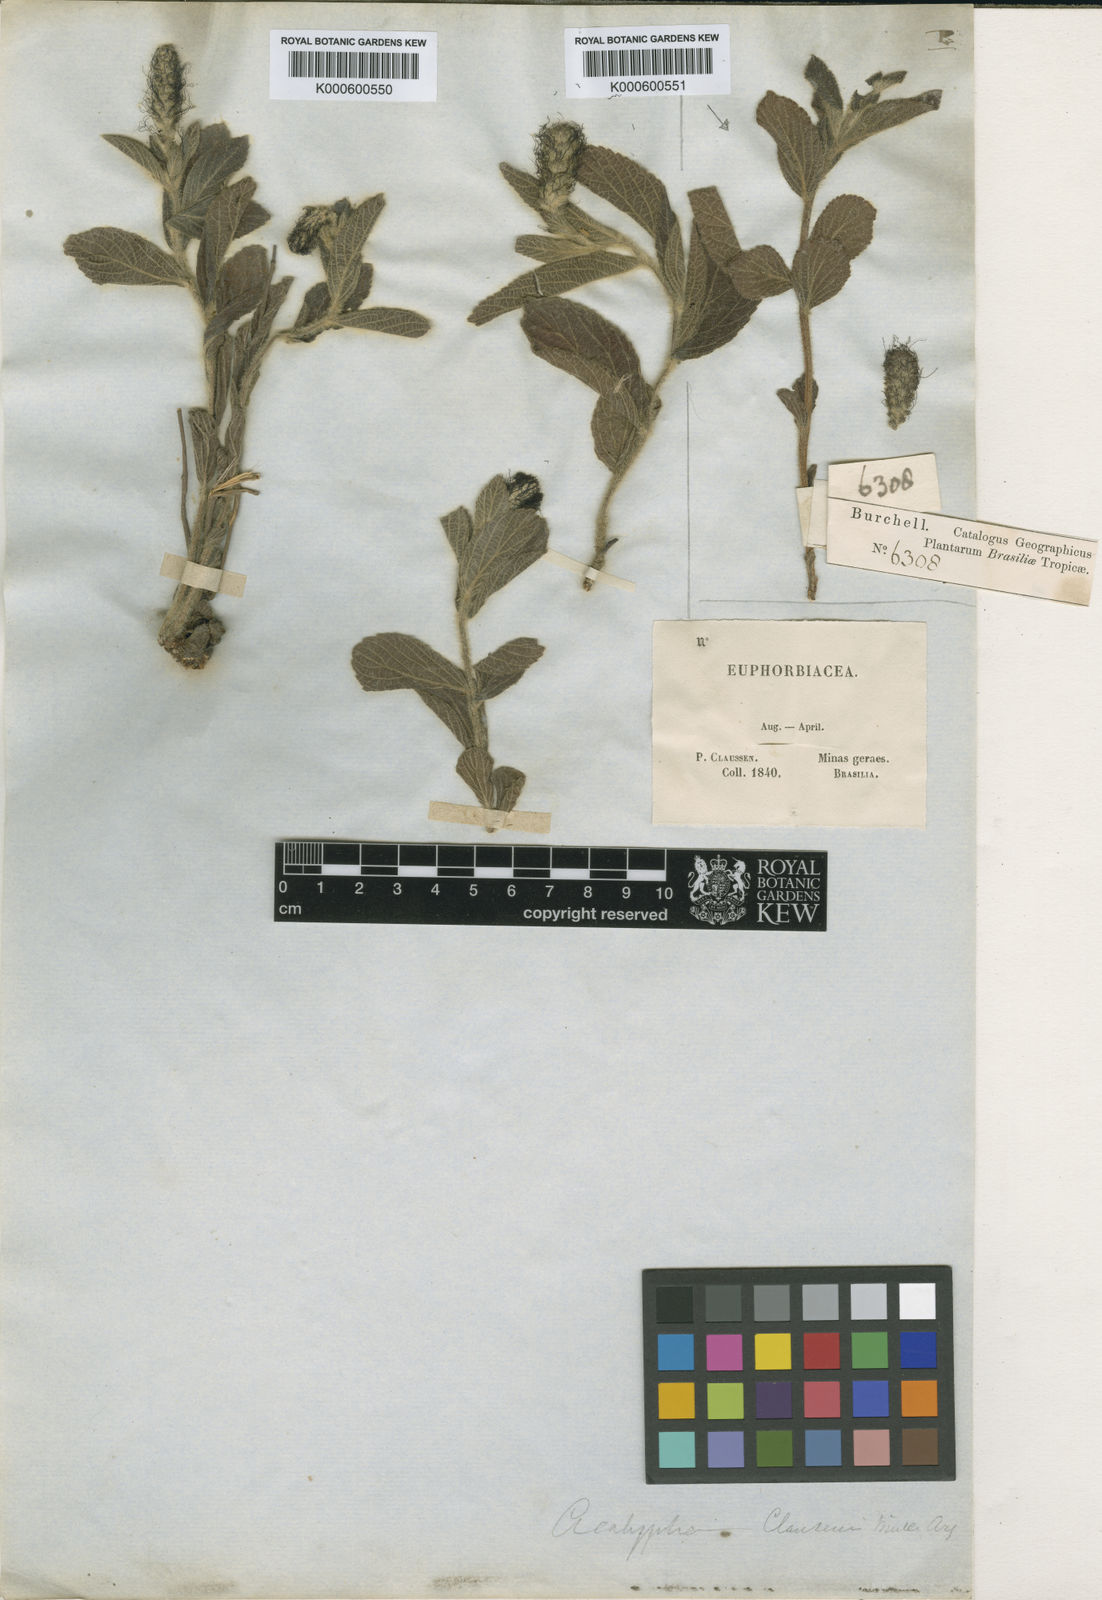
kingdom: Plantae
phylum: Tracheophyta
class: Magnoliopsida
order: Malpighiales
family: Euphorbiaceae
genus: Acalypha
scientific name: Acalypha
